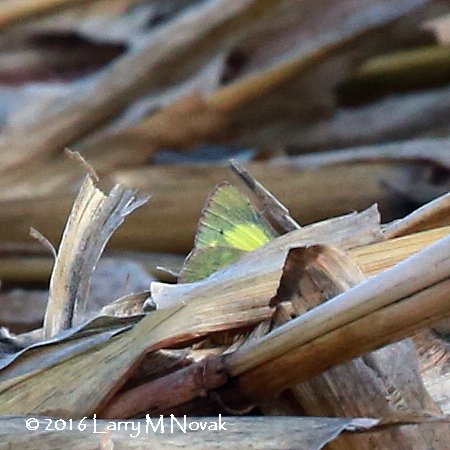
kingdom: Animalia
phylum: Arthropoda
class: Insecta
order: Lepidoptera
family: Pieridae
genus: Colias
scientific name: Colias philodice
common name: Clouded Sulphur
